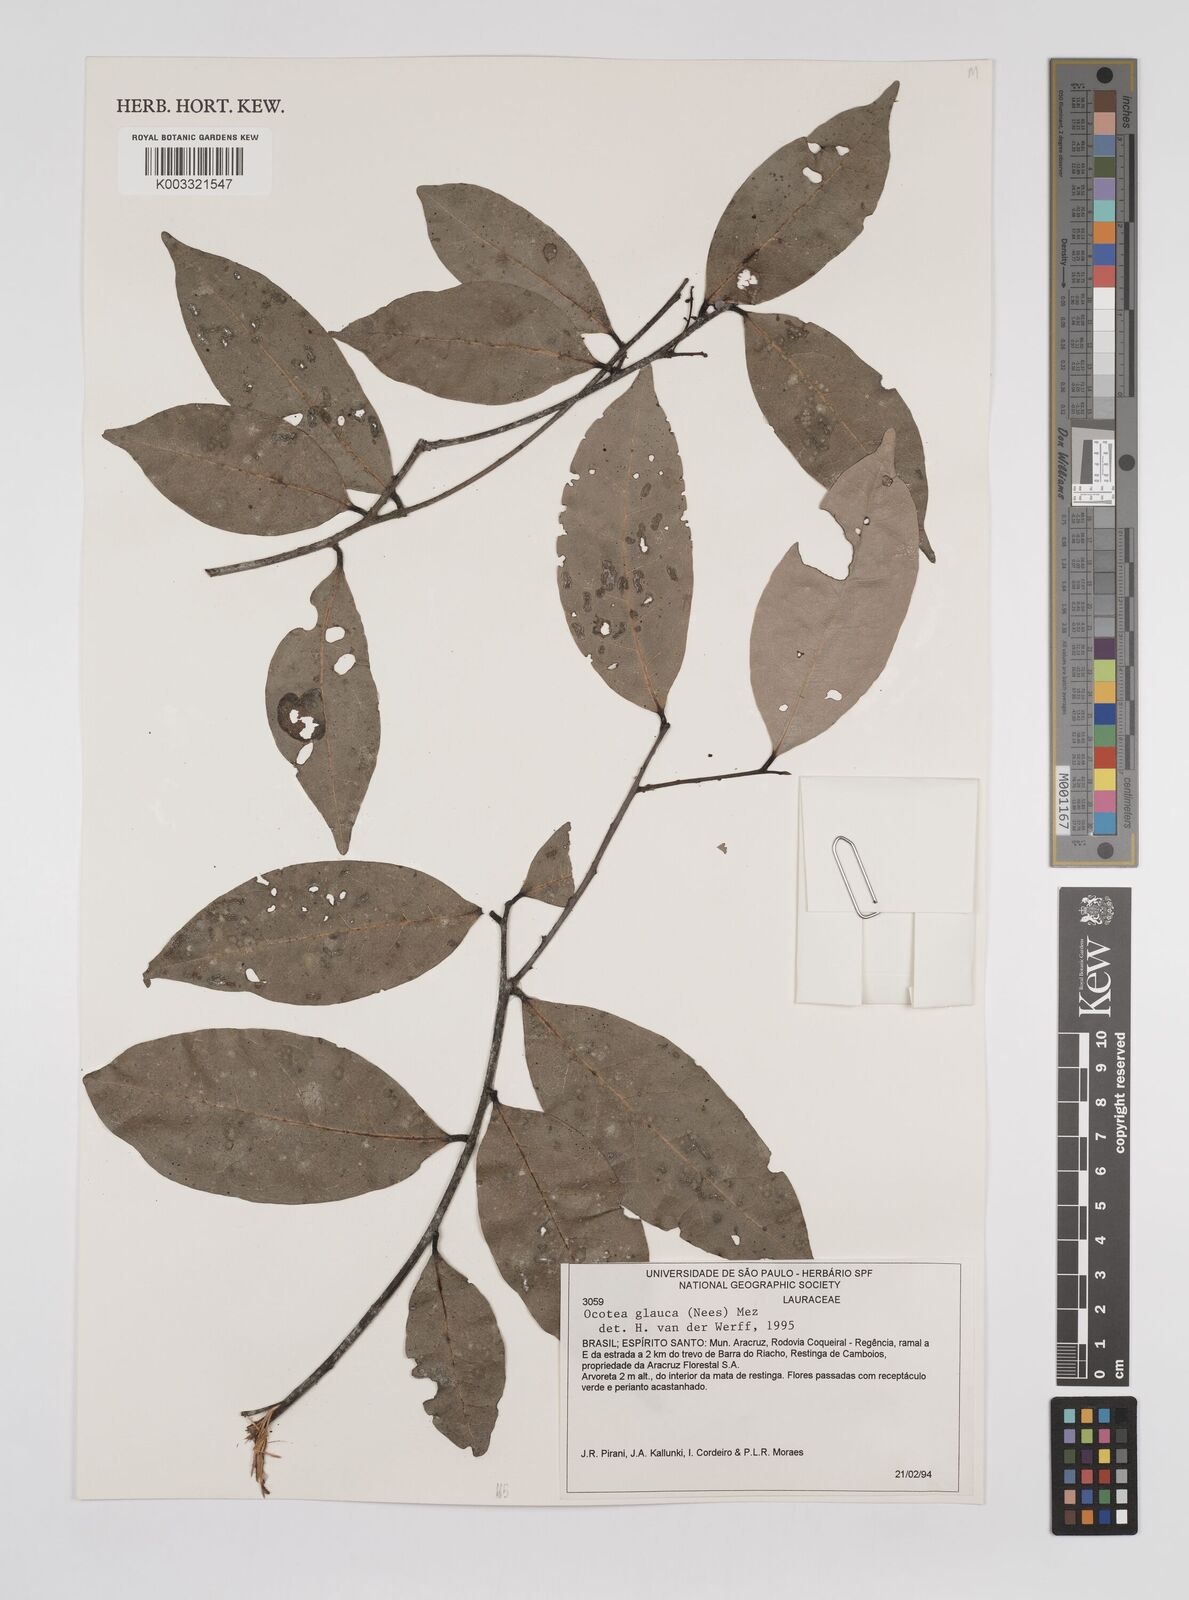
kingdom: Plantae
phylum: Tracheophyta
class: Magnoliopsida
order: Laurales
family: Lauraceae
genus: Mespilodaphne
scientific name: Mespilodaphne glauca
